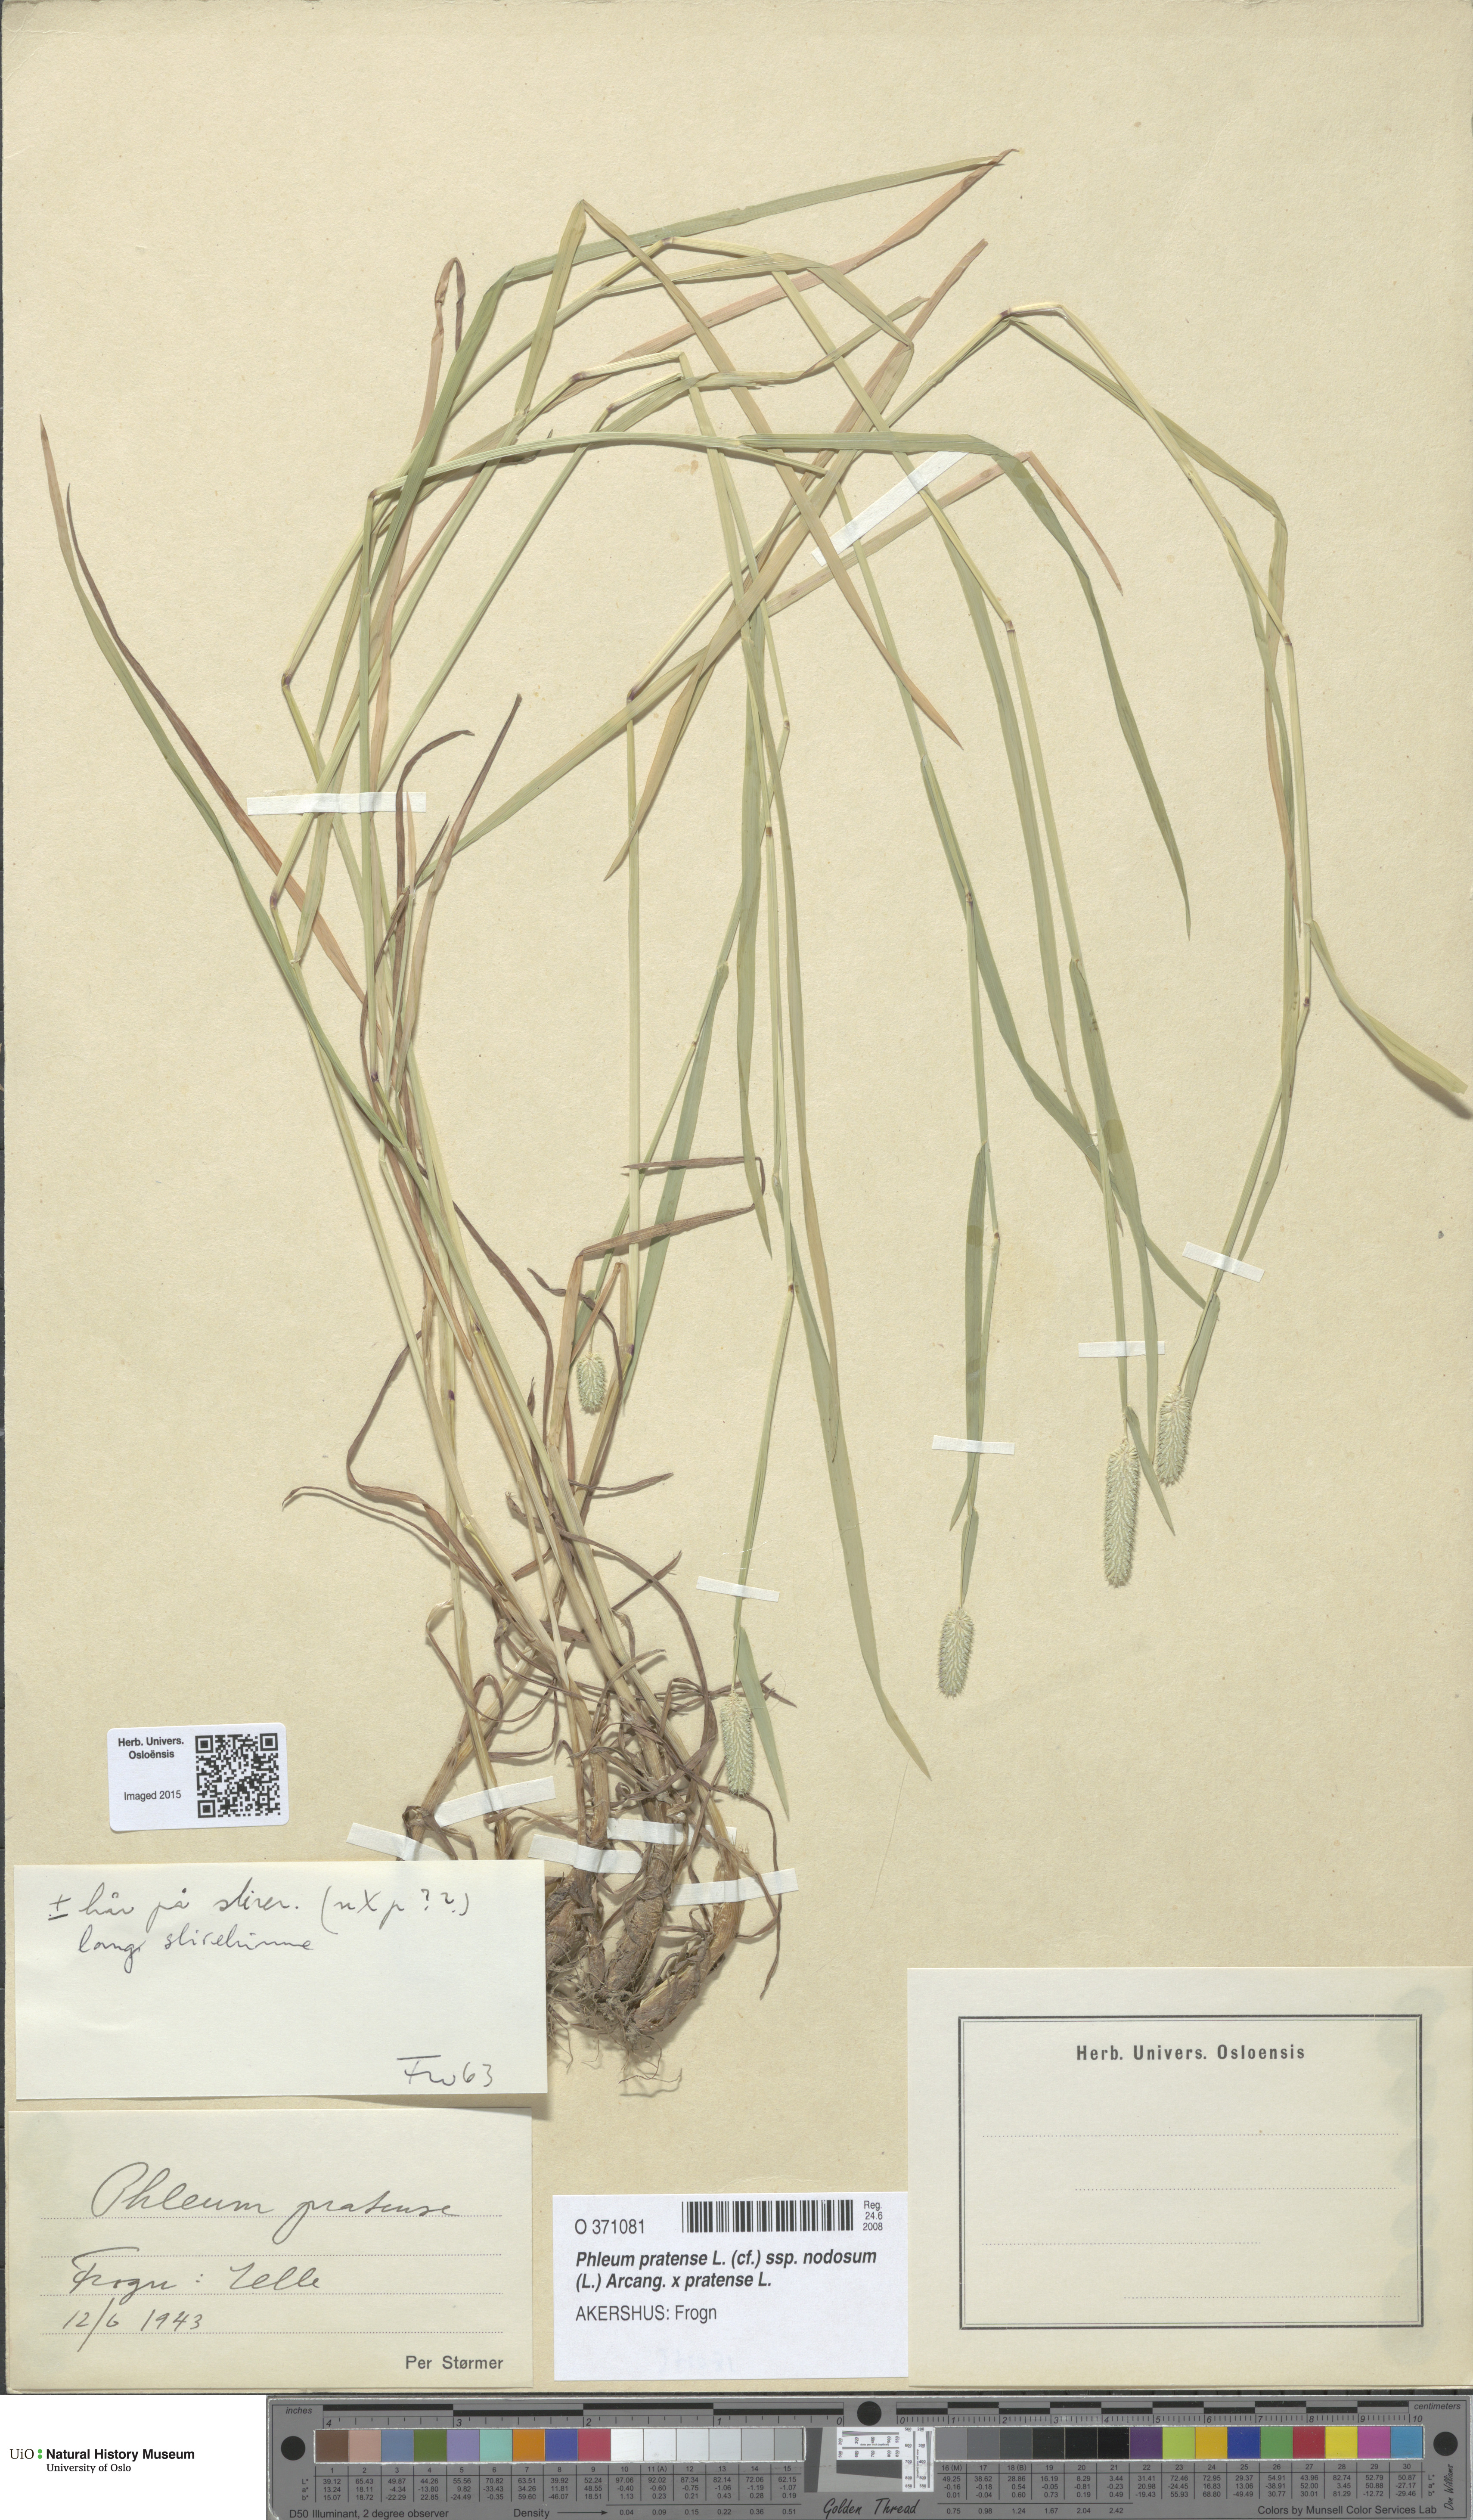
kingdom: Plantae
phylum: Tracheophyta
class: Liliopsida
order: Poales
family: Poaceae
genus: Phleum
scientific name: Phleum
